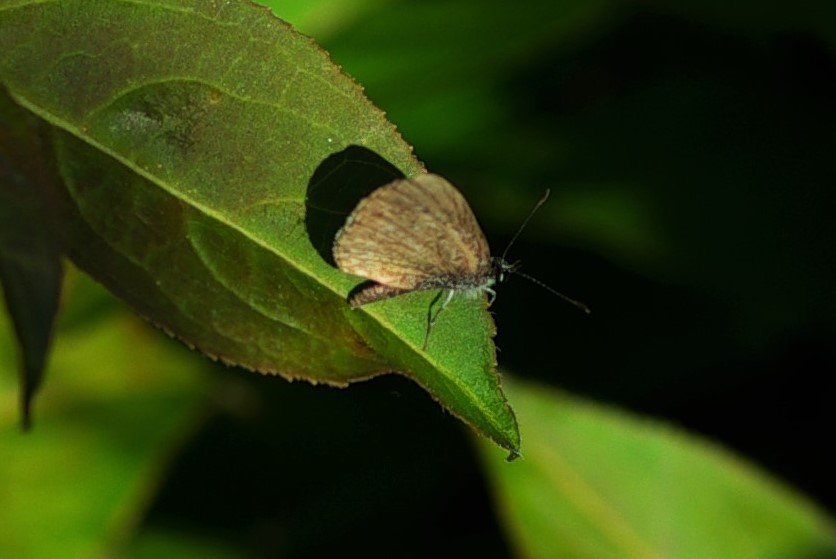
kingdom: Animalia
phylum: Arthropoda
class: Insecta
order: Lepidoptera
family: Lycaenidae
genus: Feniseca
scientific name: Feniseca tarquinius
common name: Harvester
